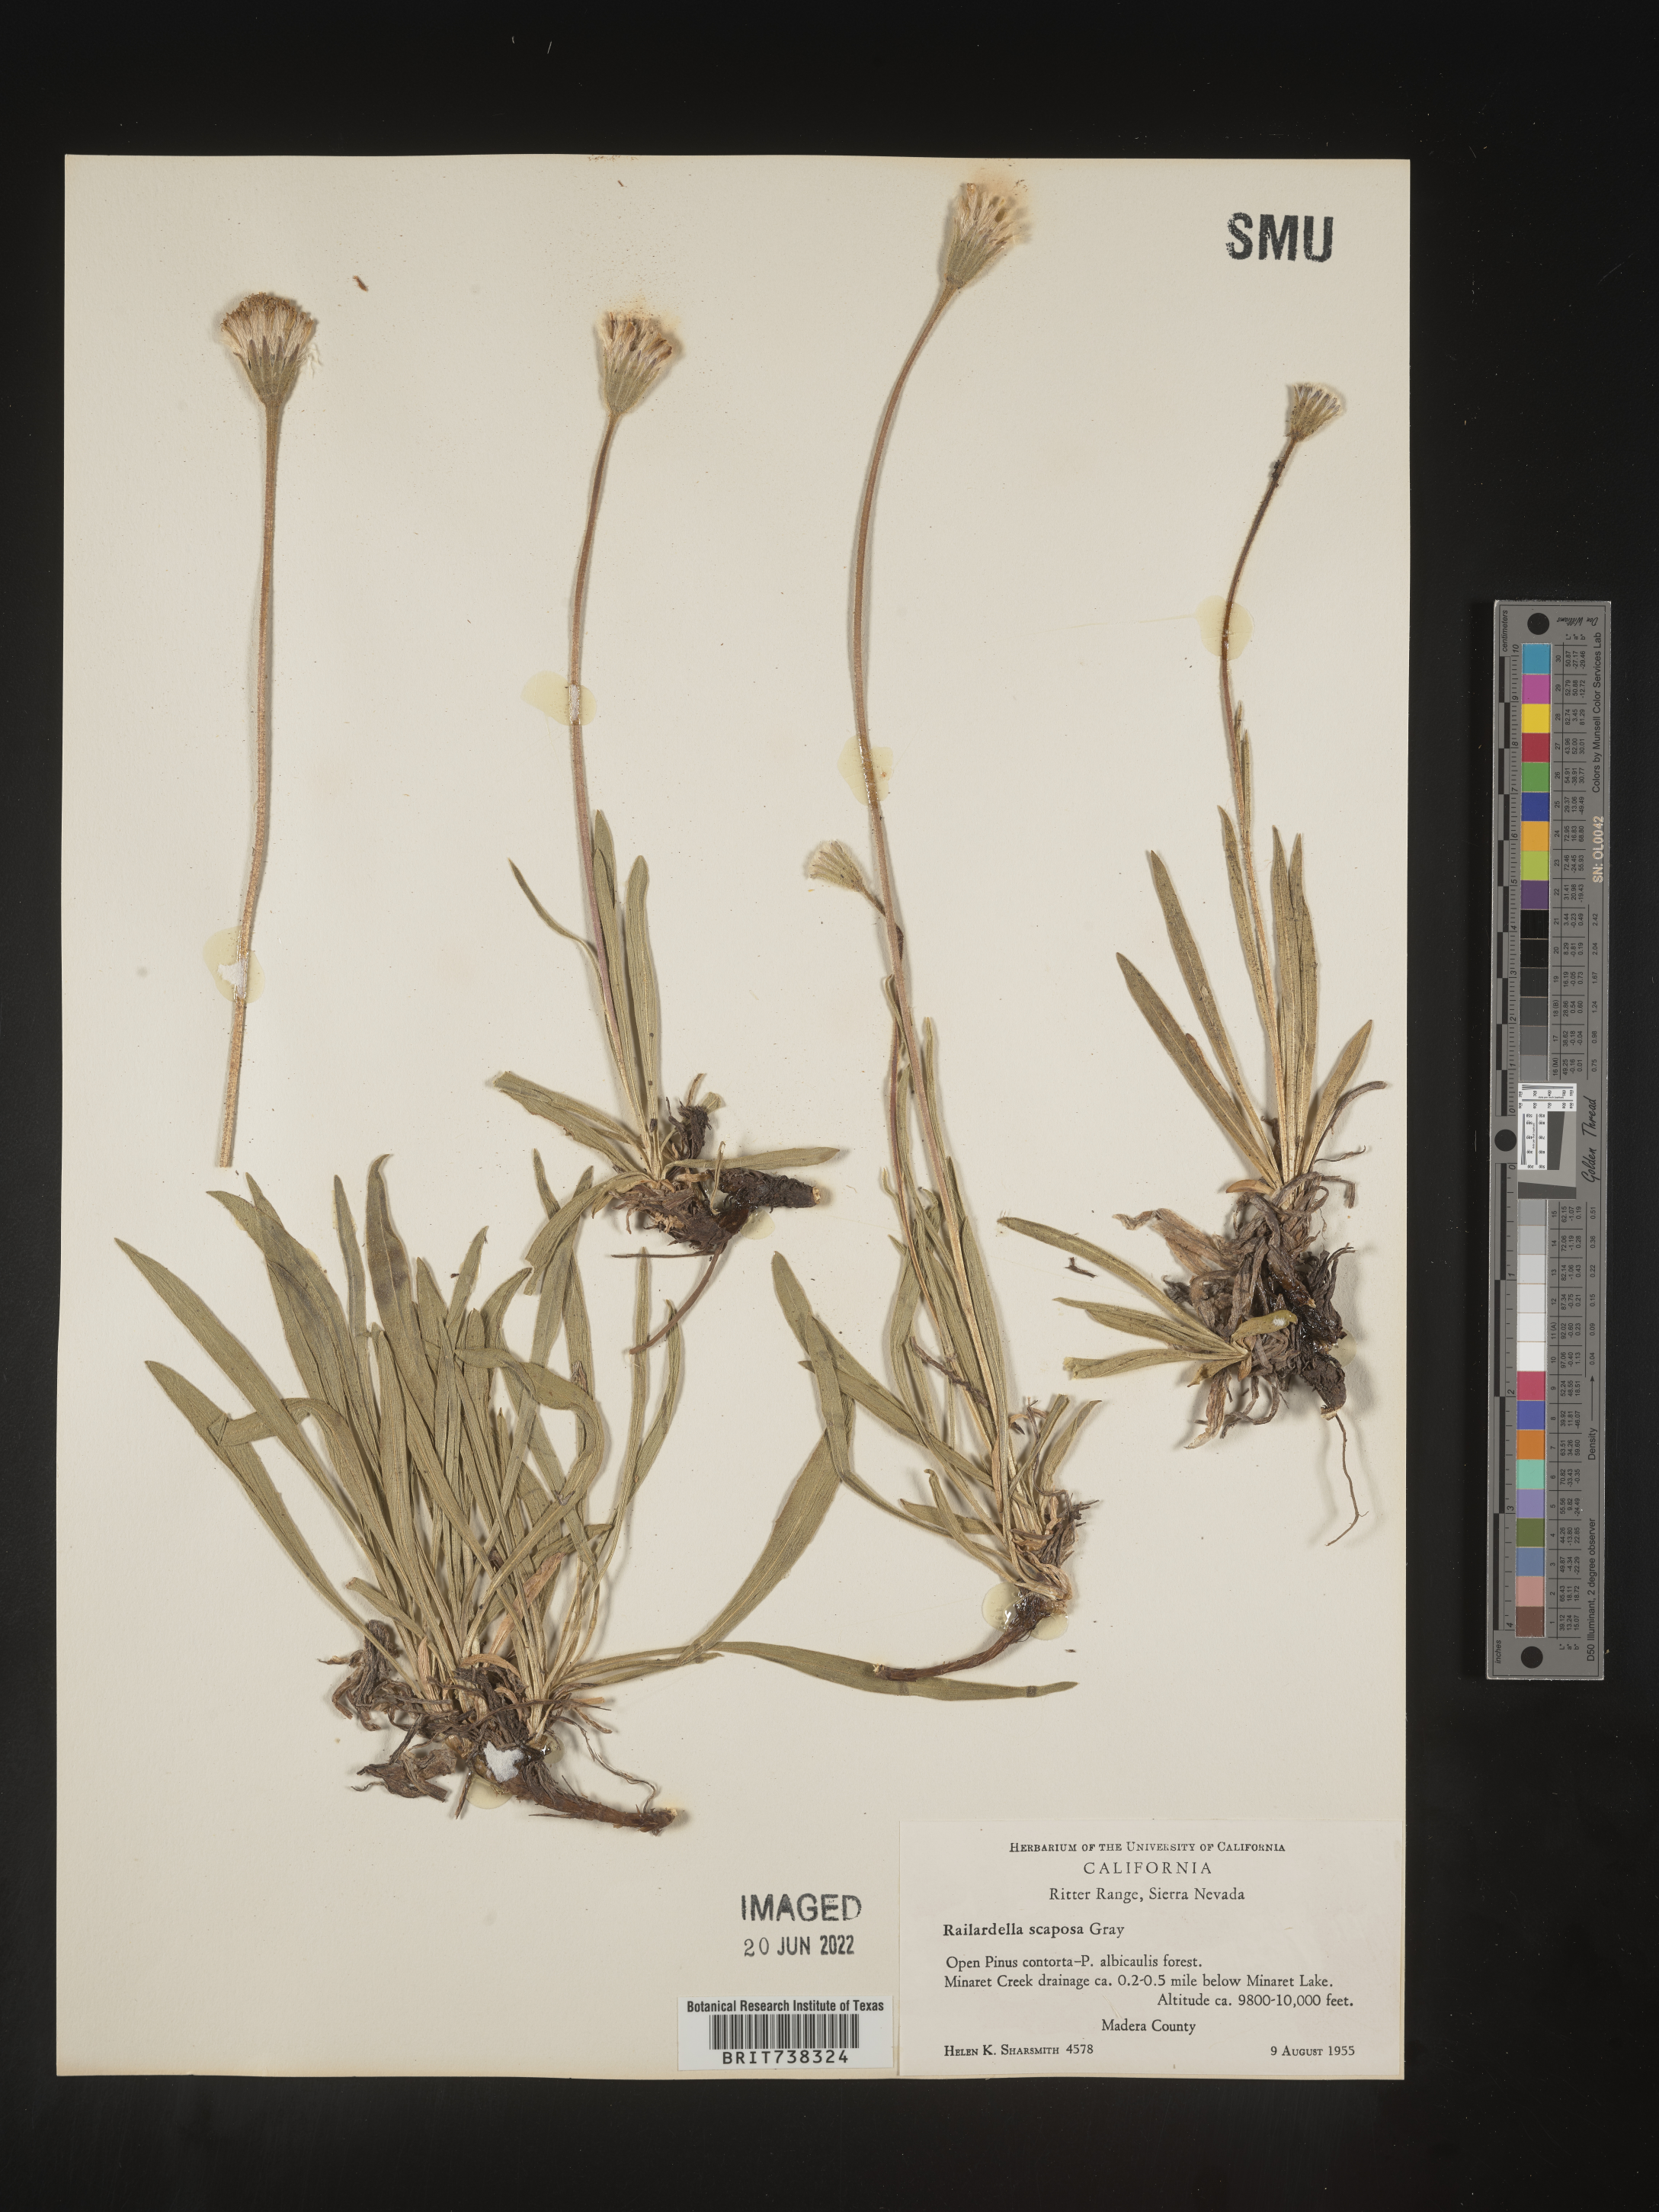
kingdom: Plantae
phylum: Tracheophyta
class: Magnoliopsida
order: Asterales
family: Asteraceae
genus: Raillardella
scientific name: Raillardella
